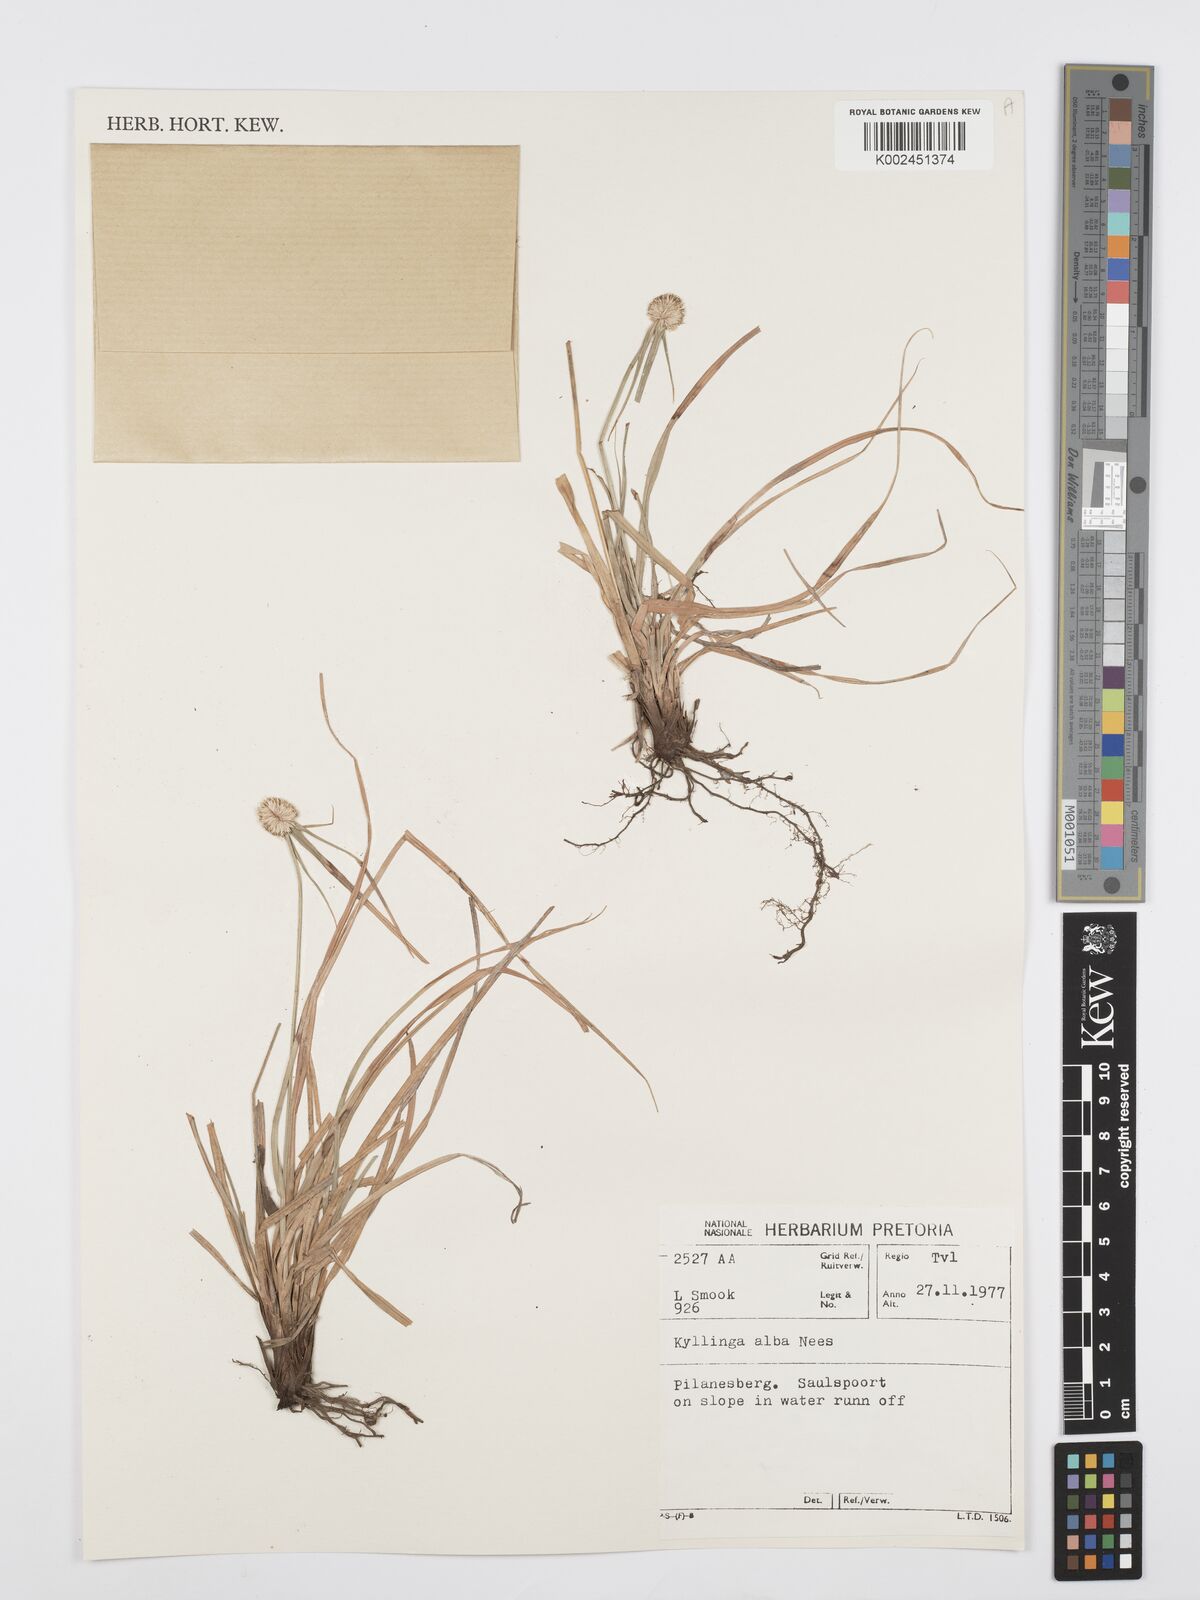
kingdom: Plantae
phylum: Tracheophyta
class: Liliopsida
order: Poales
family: Cyperaceae
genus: Cyperus
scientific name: Cyperus
